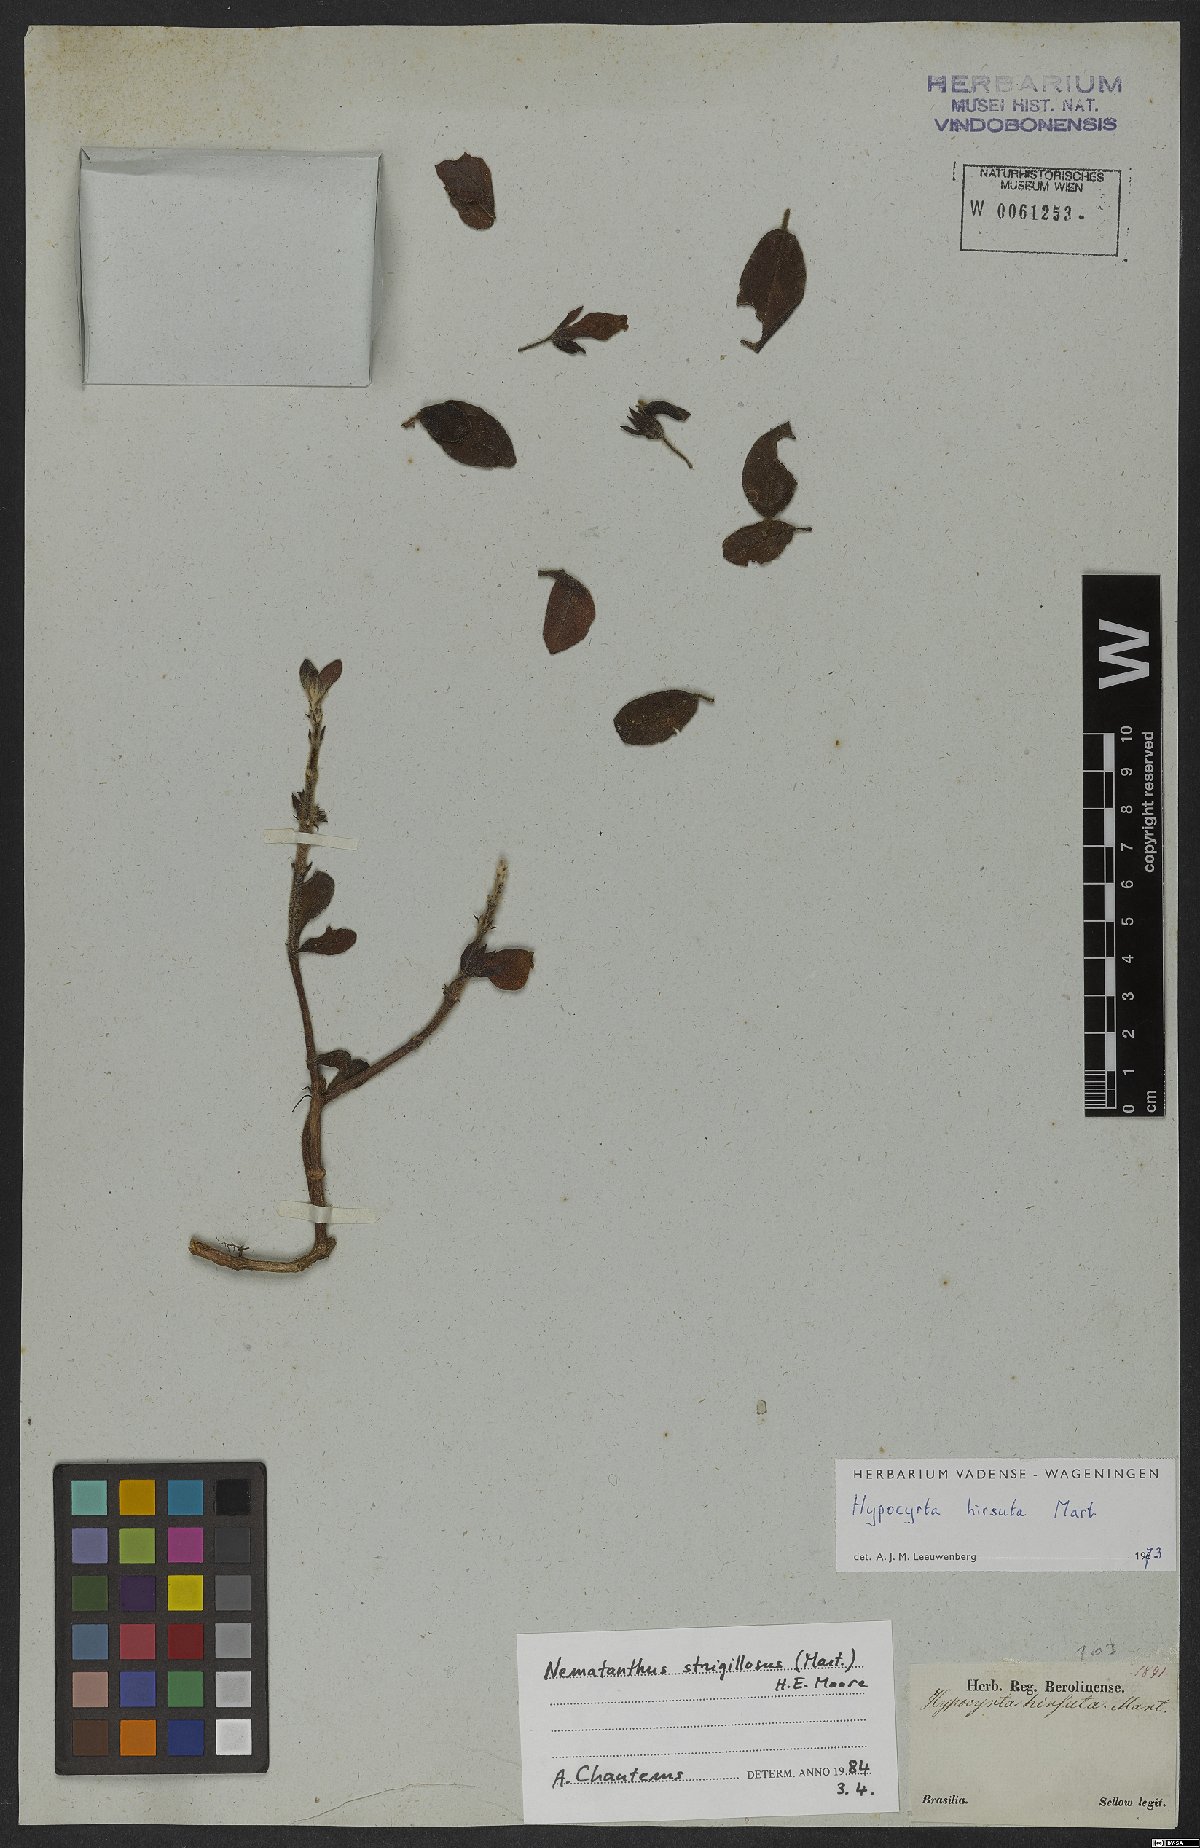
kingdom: Plantae
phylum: Tracheophyta
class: Magnoliopsida
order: Lamiales
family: Gesneriaceae
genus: Nematanthus
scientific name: Nematanthus strigillosus
